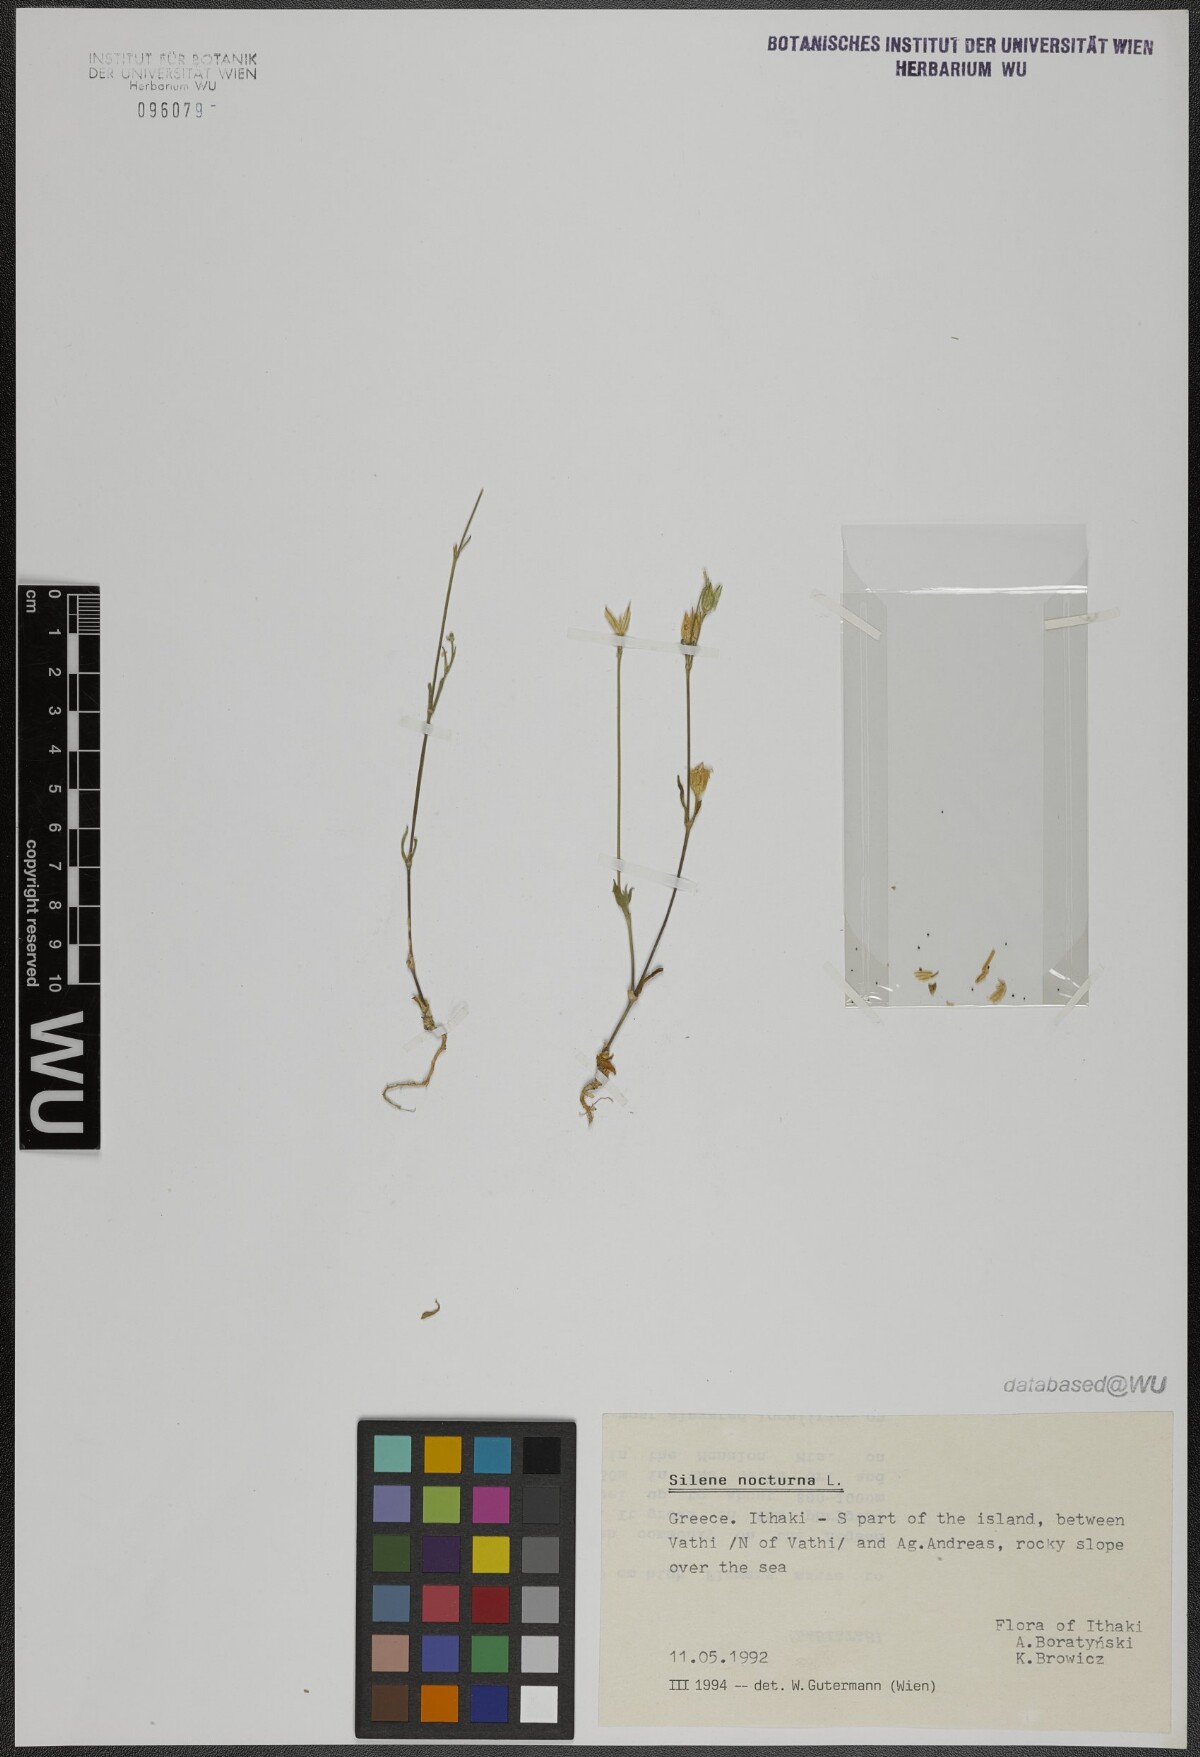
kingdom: Plantae
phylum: Tracheophyta
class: Magnoliopsida
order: Caryophyllales
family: Caryophyllaceae
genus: Silene
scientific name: Silene nocturna
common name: Mediterranean catchfly
